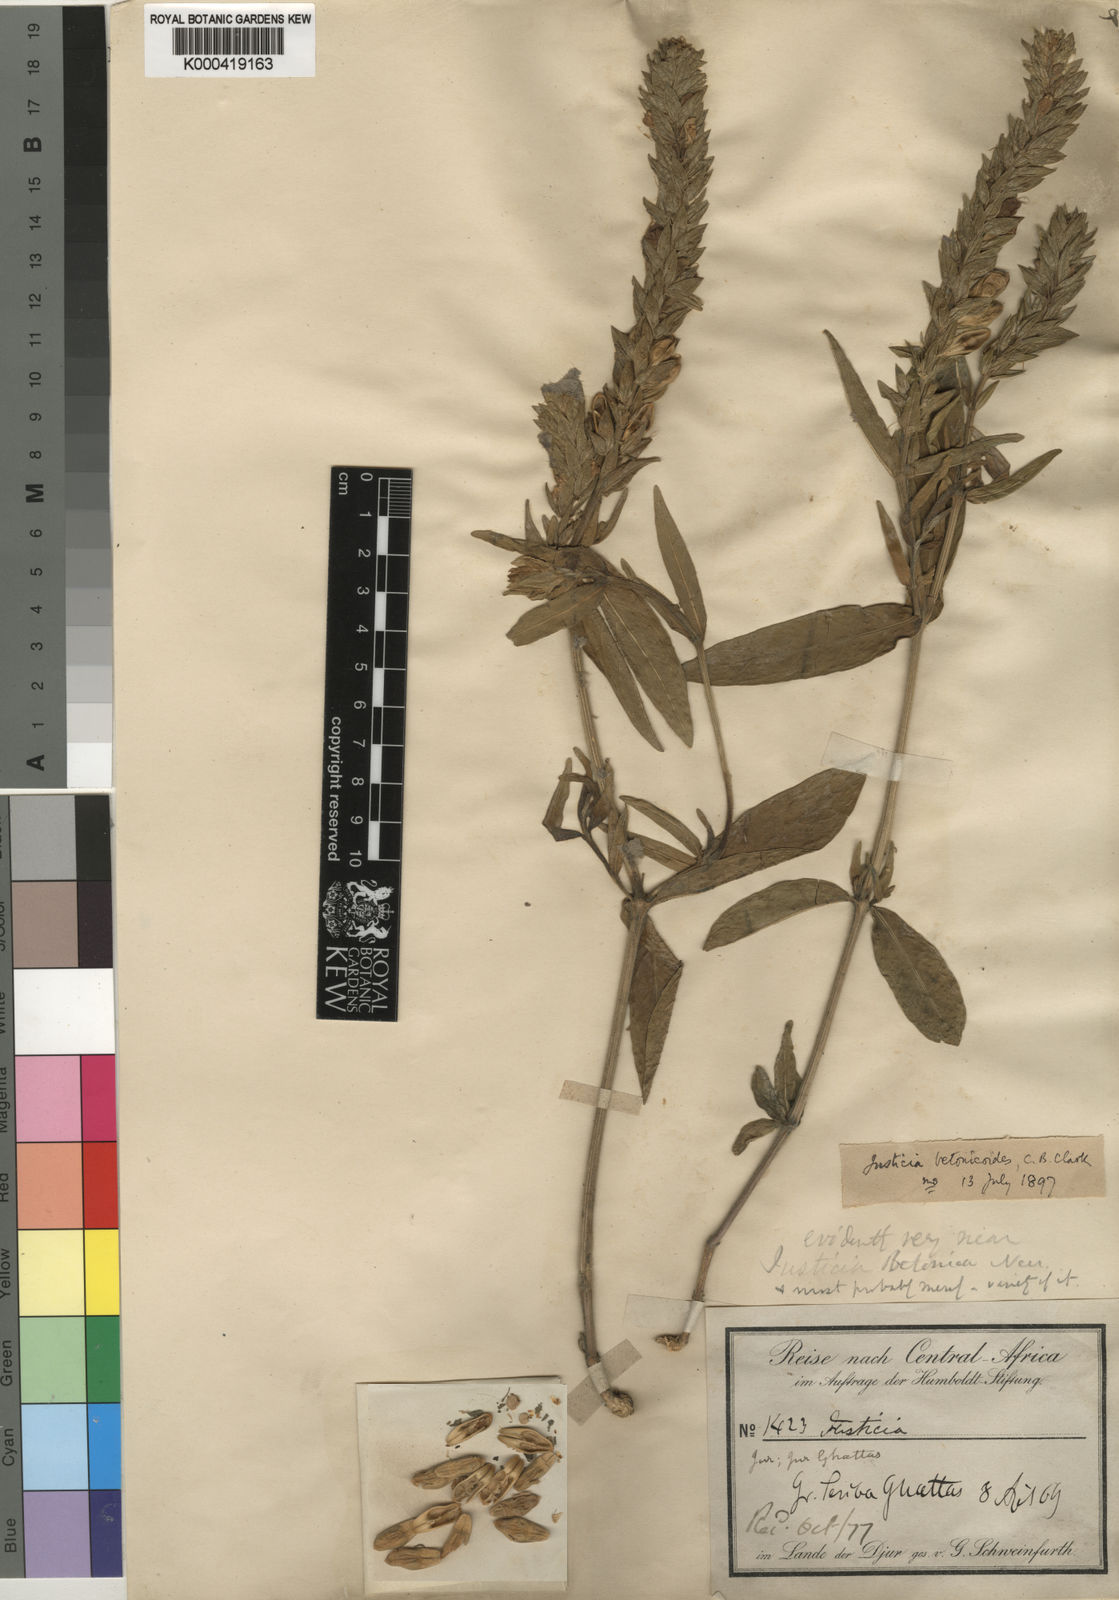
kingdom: Plantae
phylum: Tracheophyta
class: Magnoliopsida
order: Lamiales
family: Acanthaceae
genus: Justicia
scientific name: Justicia
